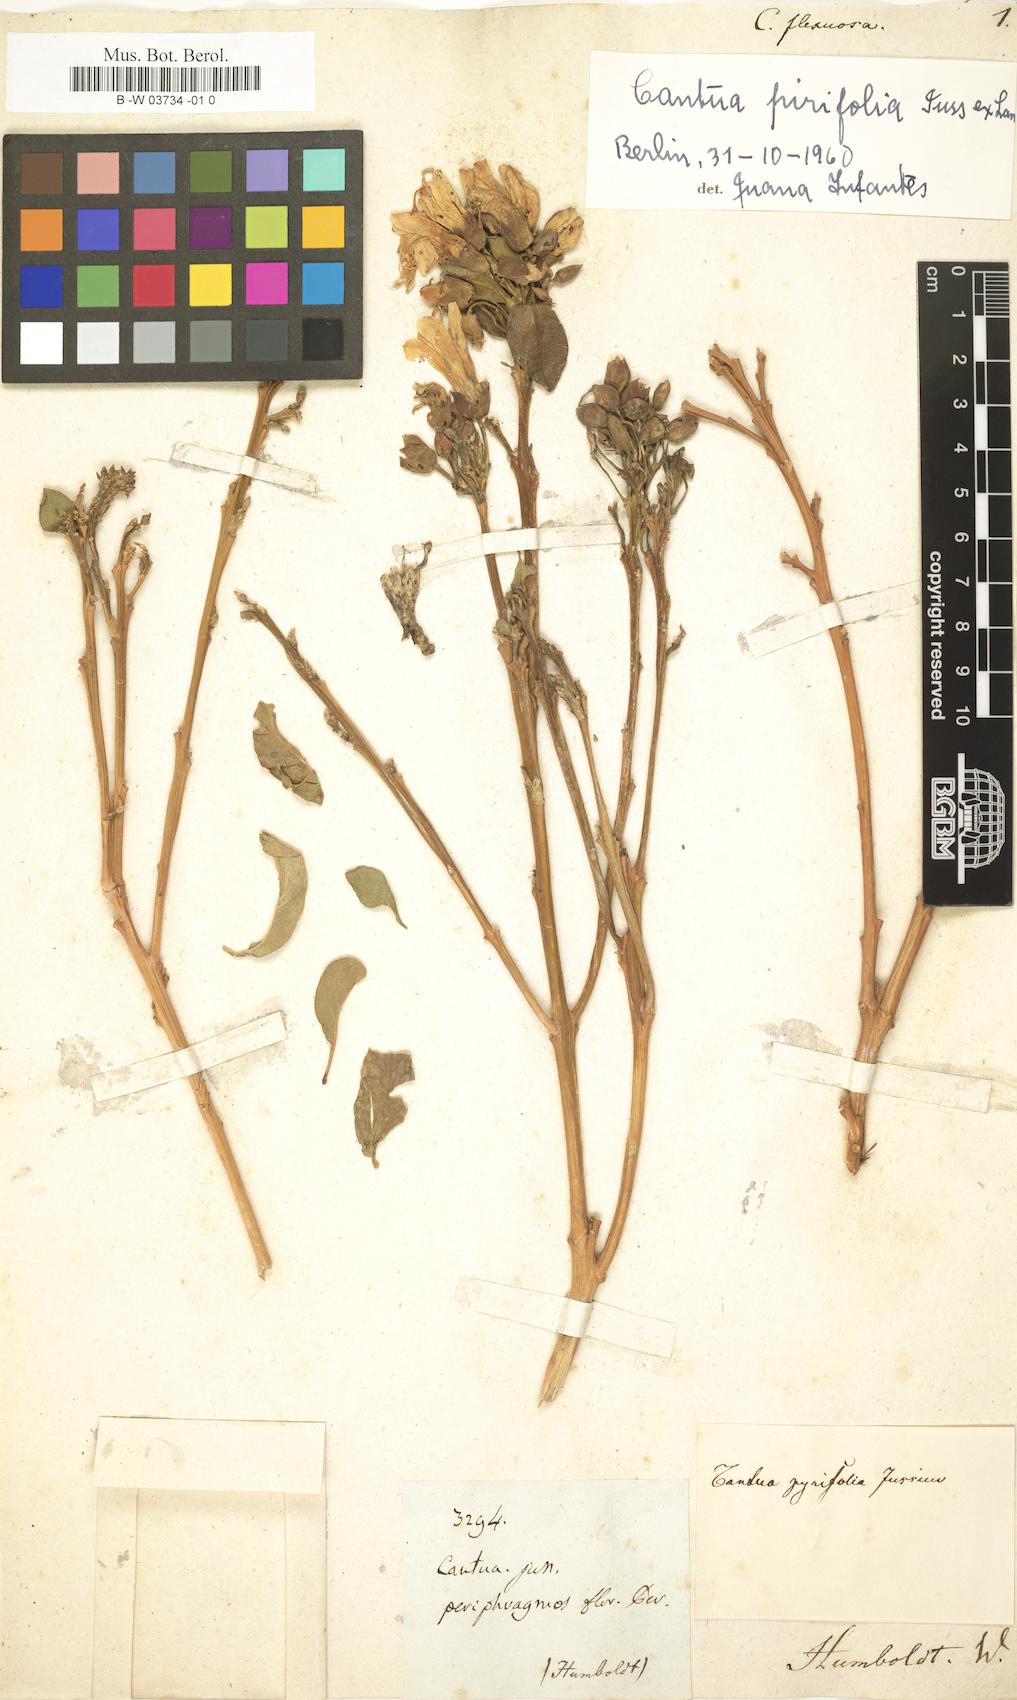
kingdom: Plantae
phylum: Tracheophyta
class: Magnoliopsida
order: Ericales
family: Polemoniaceae
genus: Cantua
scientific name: Cantua flexuosa
